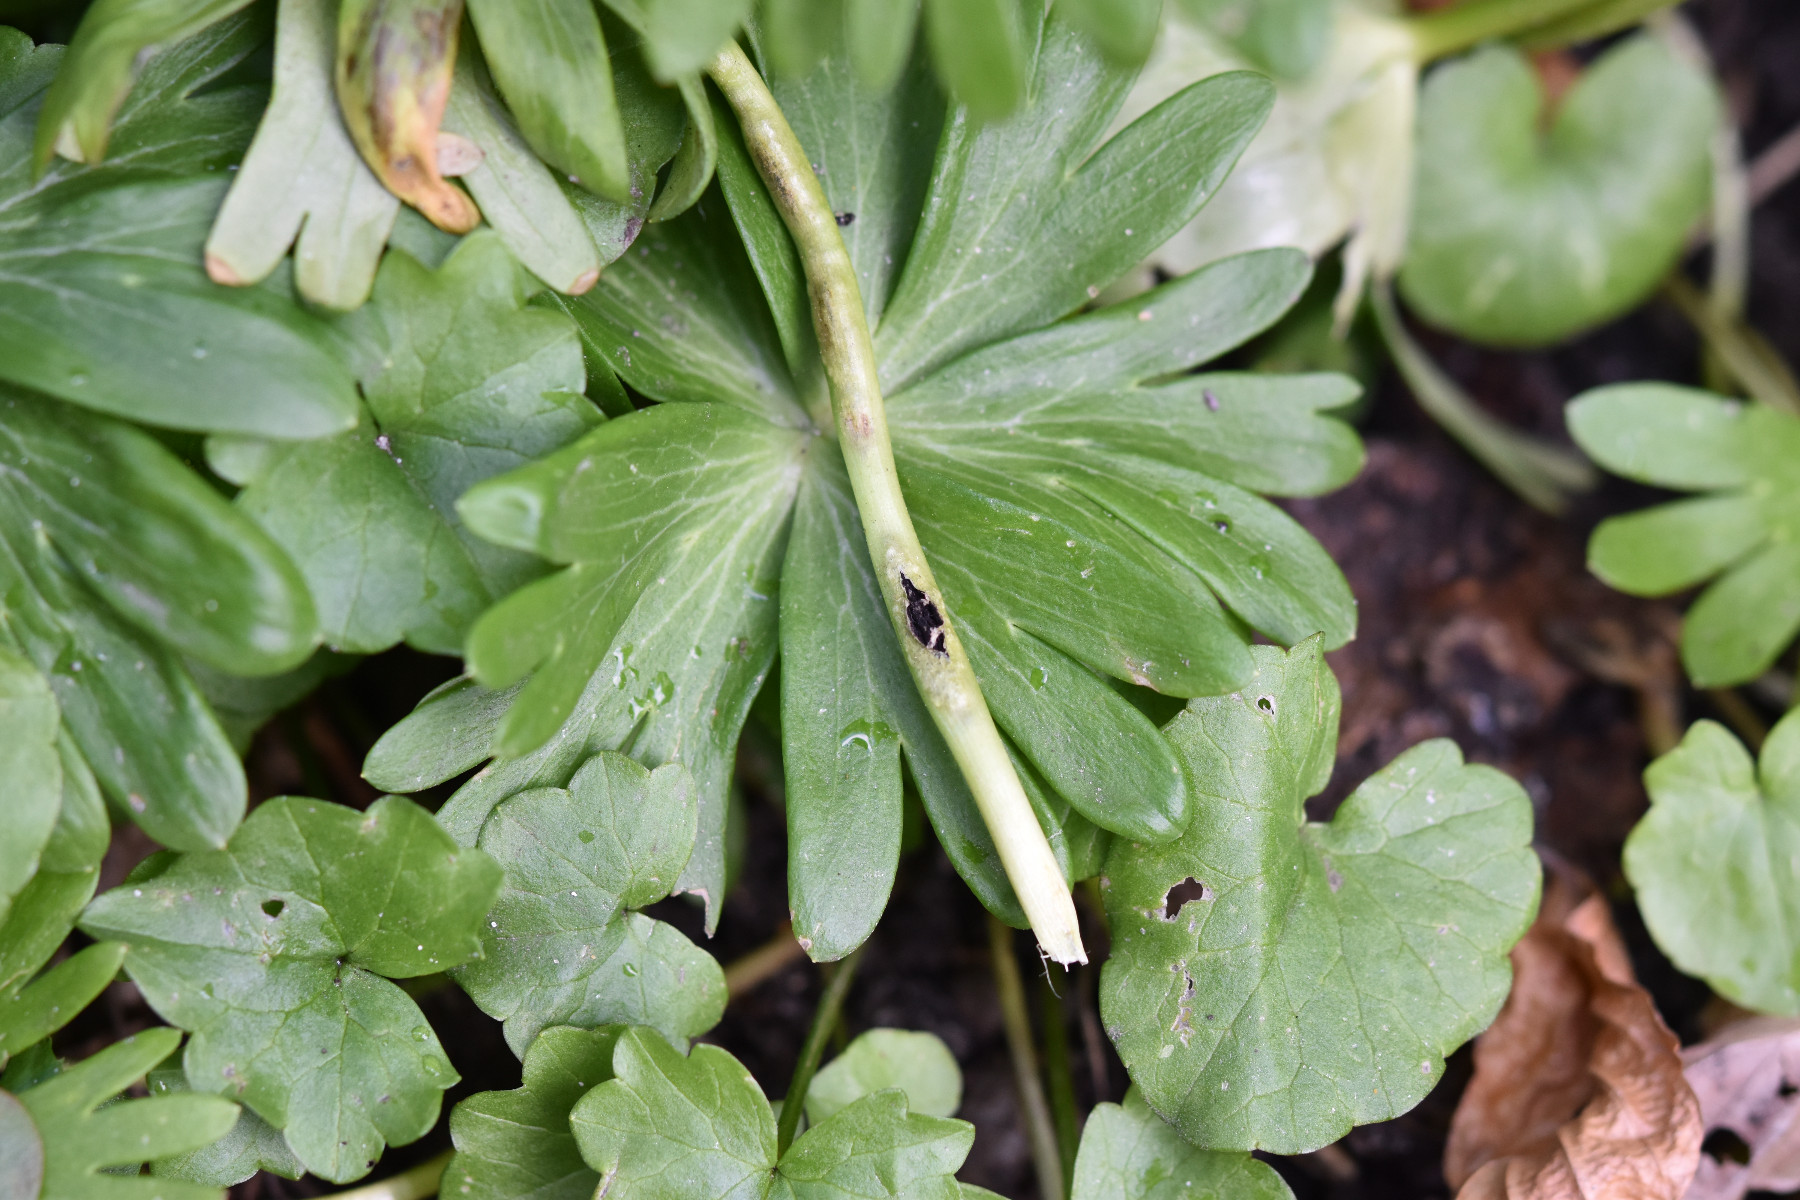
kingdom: Fungi
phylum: Basidiomycota
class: Ustilaginomycetes
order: Urocystidales
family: Urocystidaceae
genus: Urocystis
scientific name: Urocystis eranthidis
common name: erantis-brand
